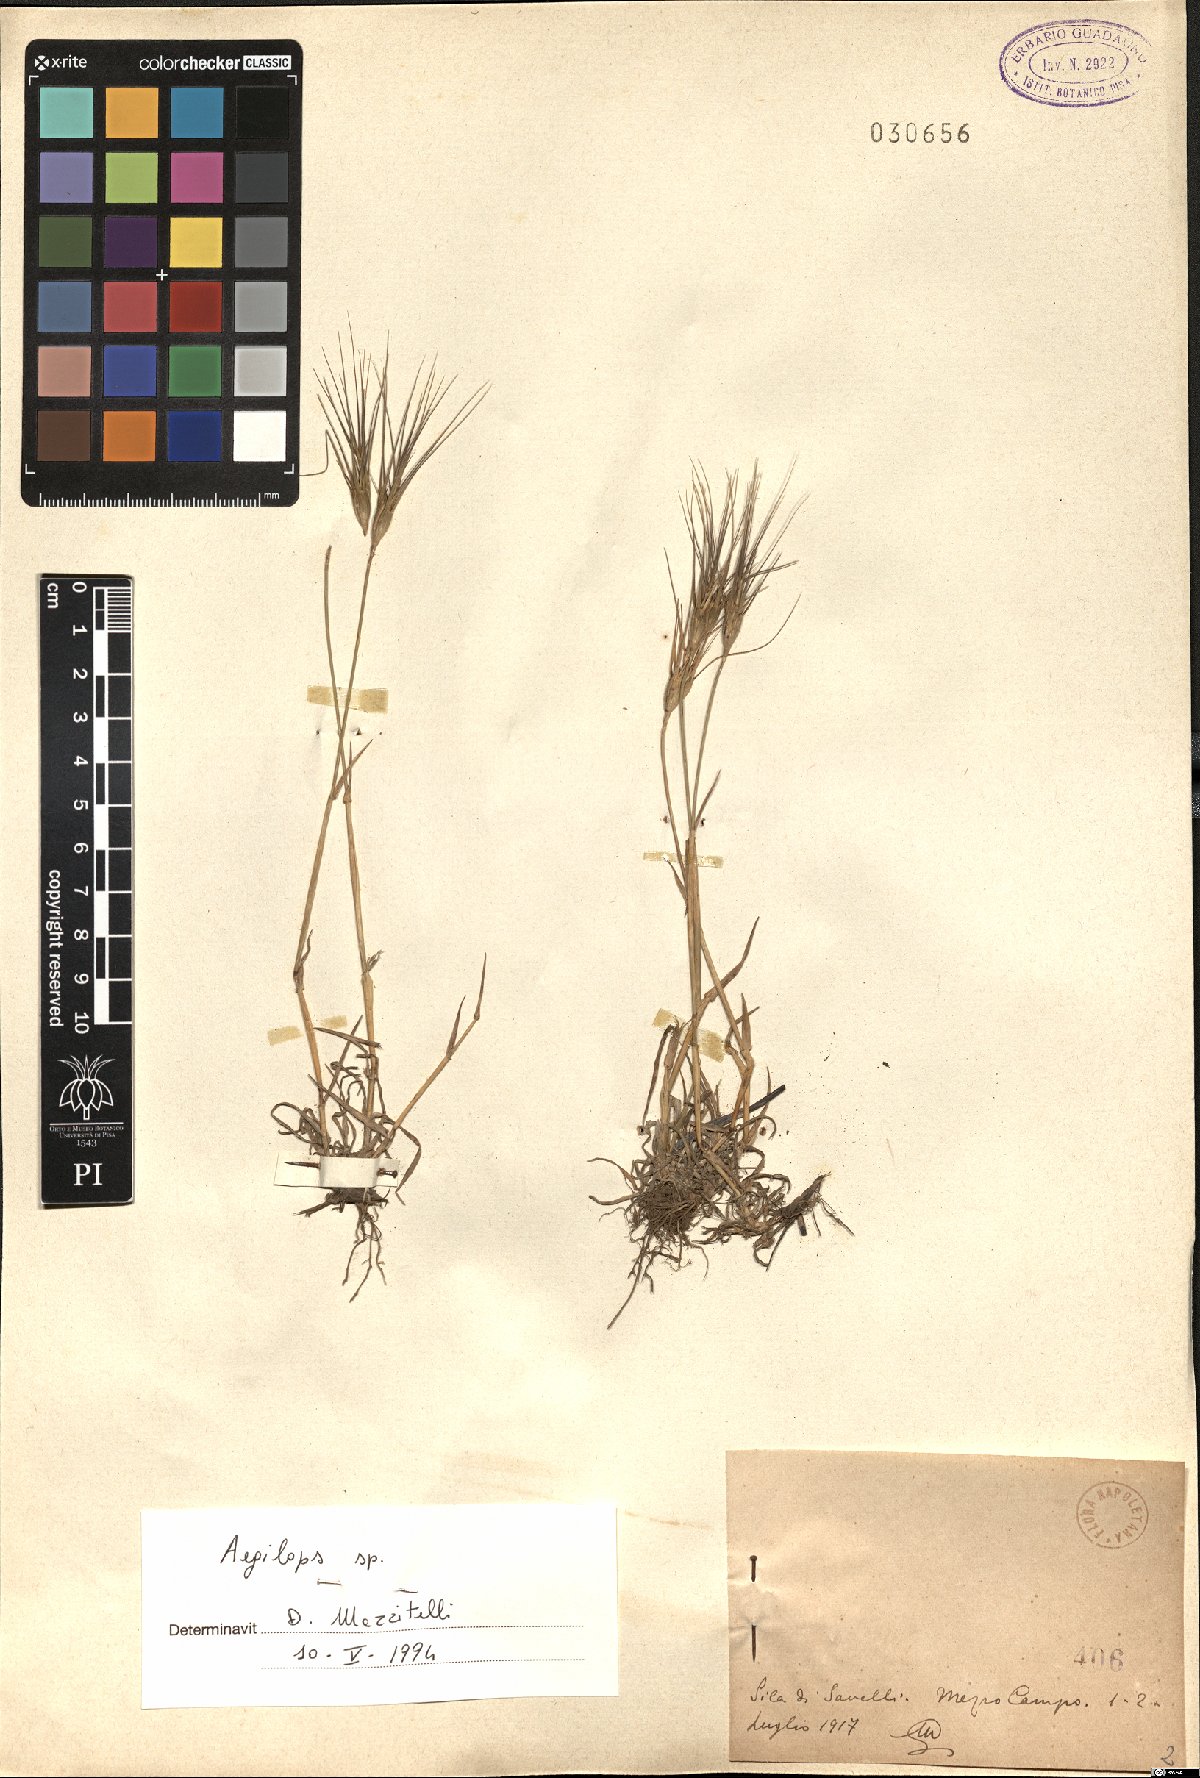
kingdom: Plantae
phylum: Tracheophyta
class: Liliopsida
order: Poales
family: Poaceae
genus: Aegilops
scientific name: Aegilops
